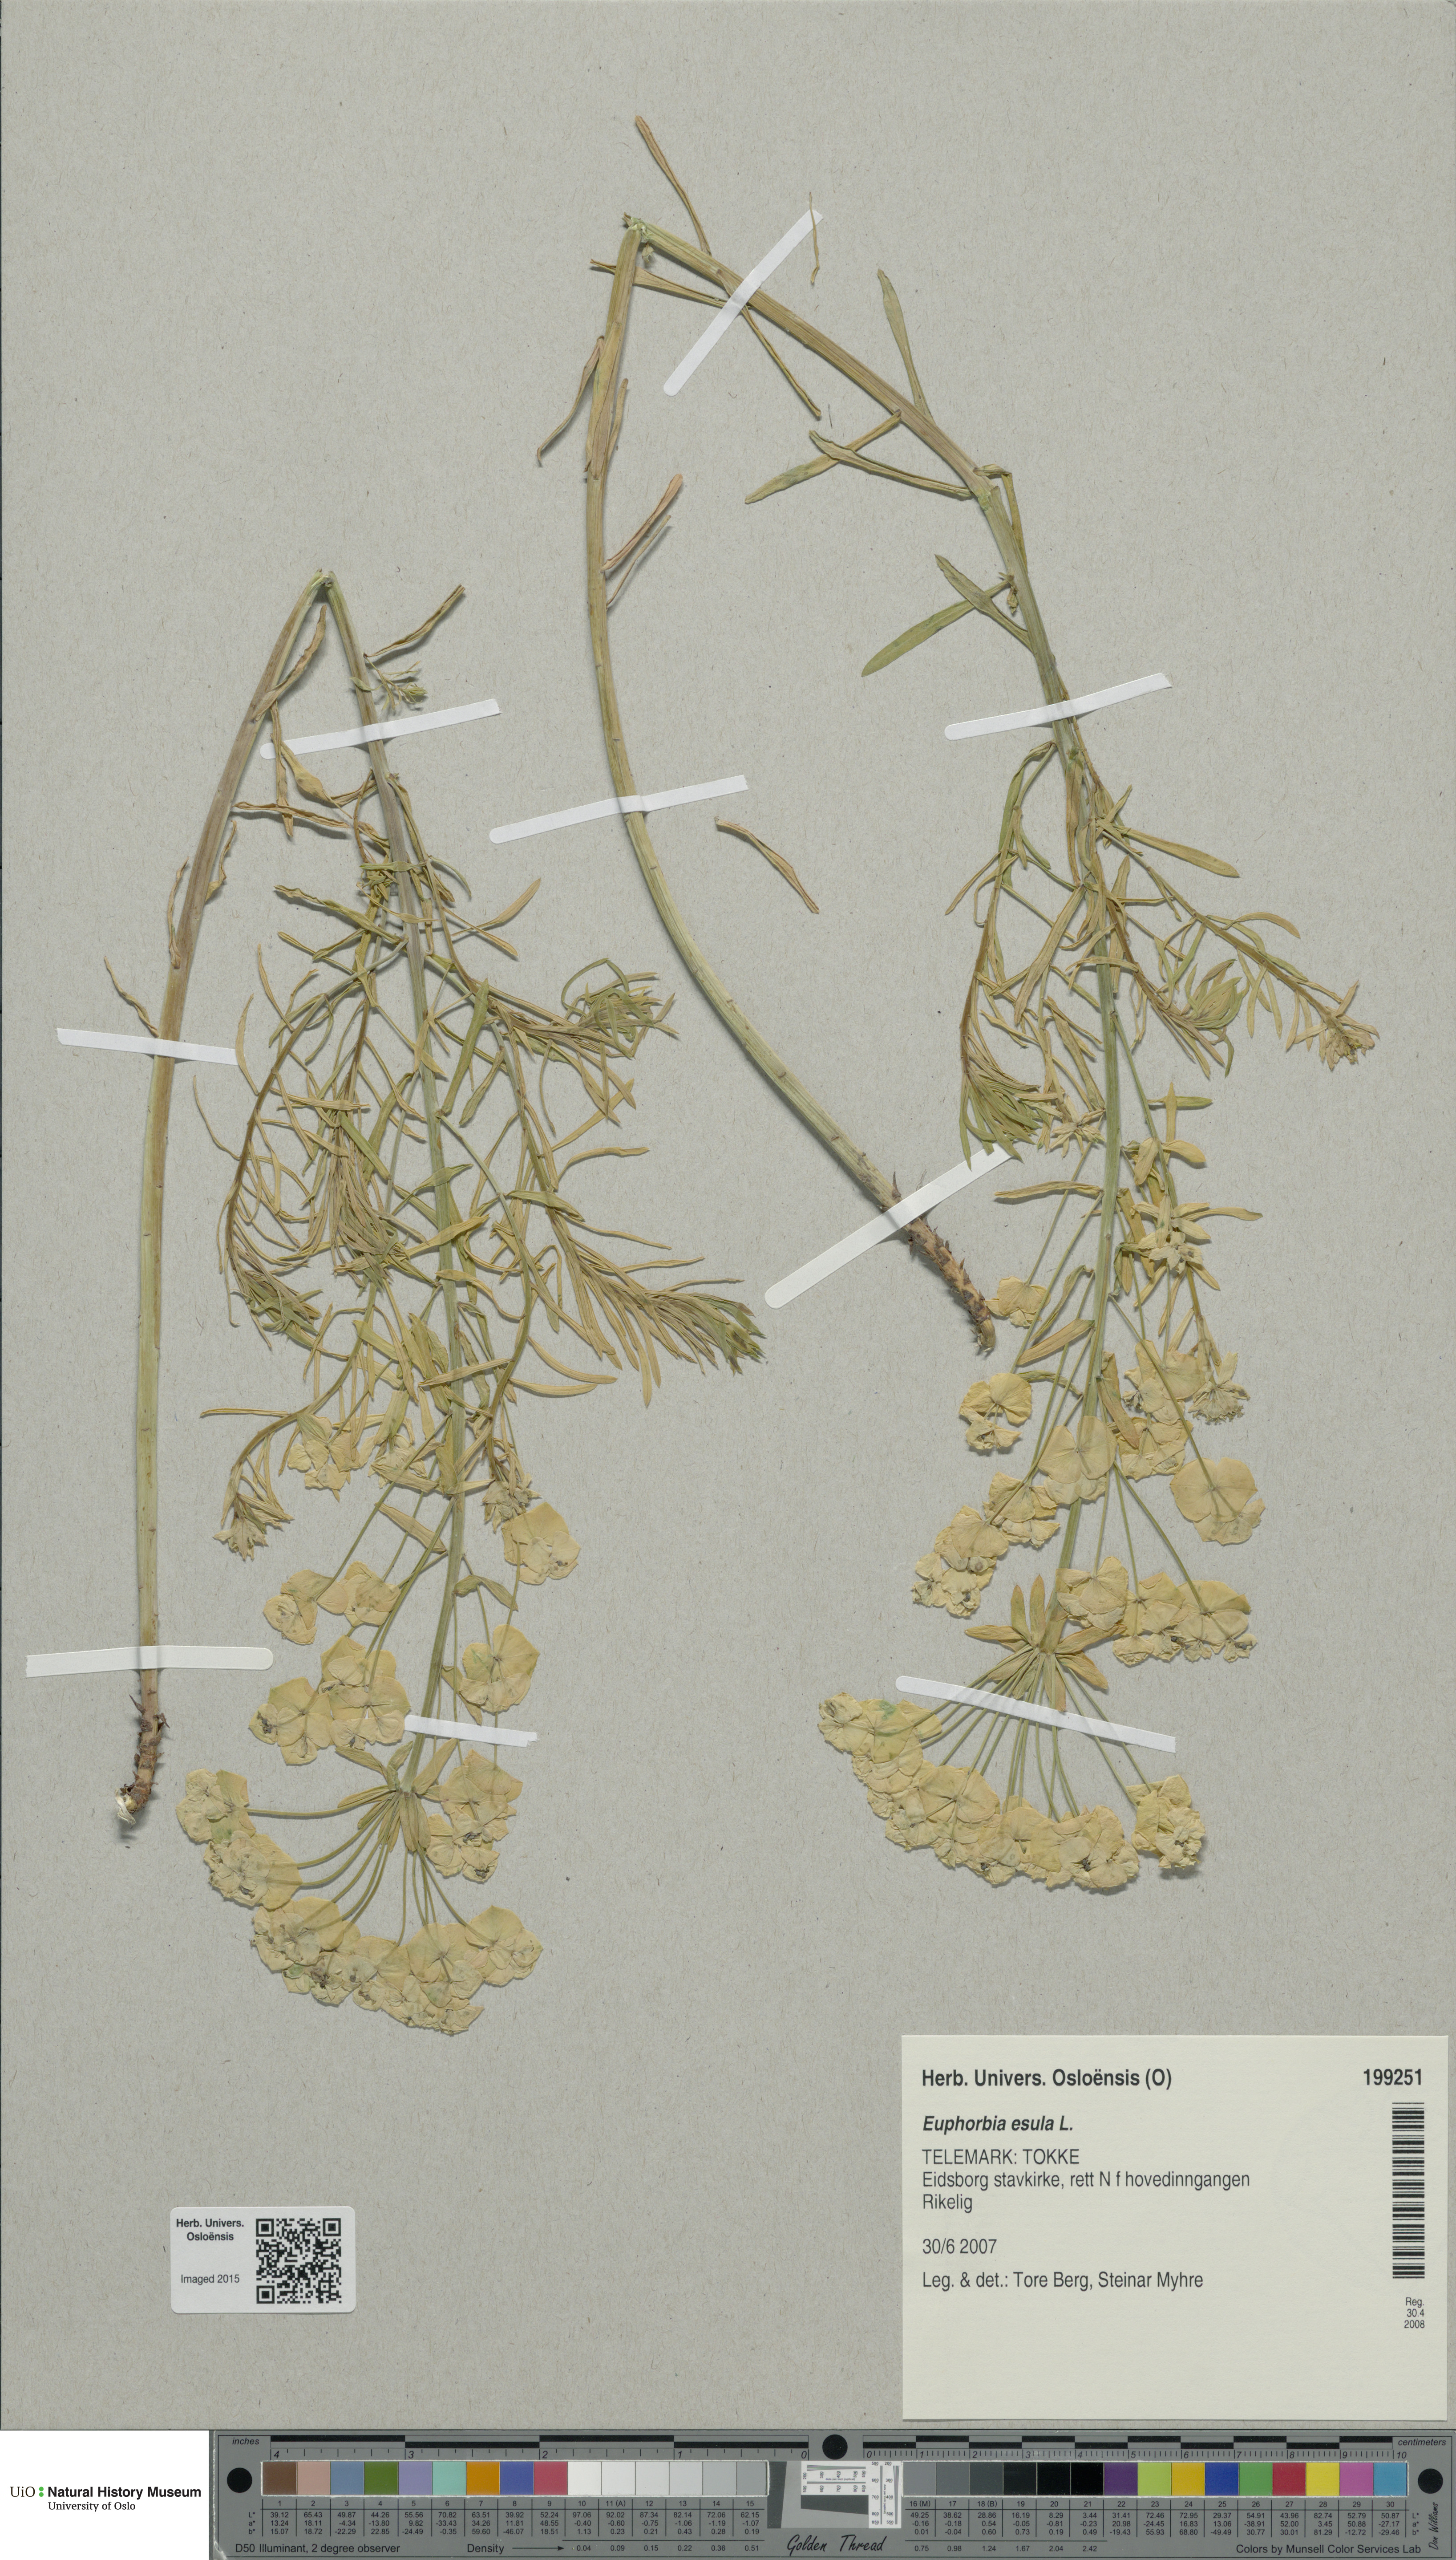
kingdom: Plantae
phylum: Tracheophyta
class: Magnoliopsida
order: Malpighiales
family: Euphorbiaceae
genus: Euphorbia
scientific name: Euphorbia esula
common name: Leafy spurge
